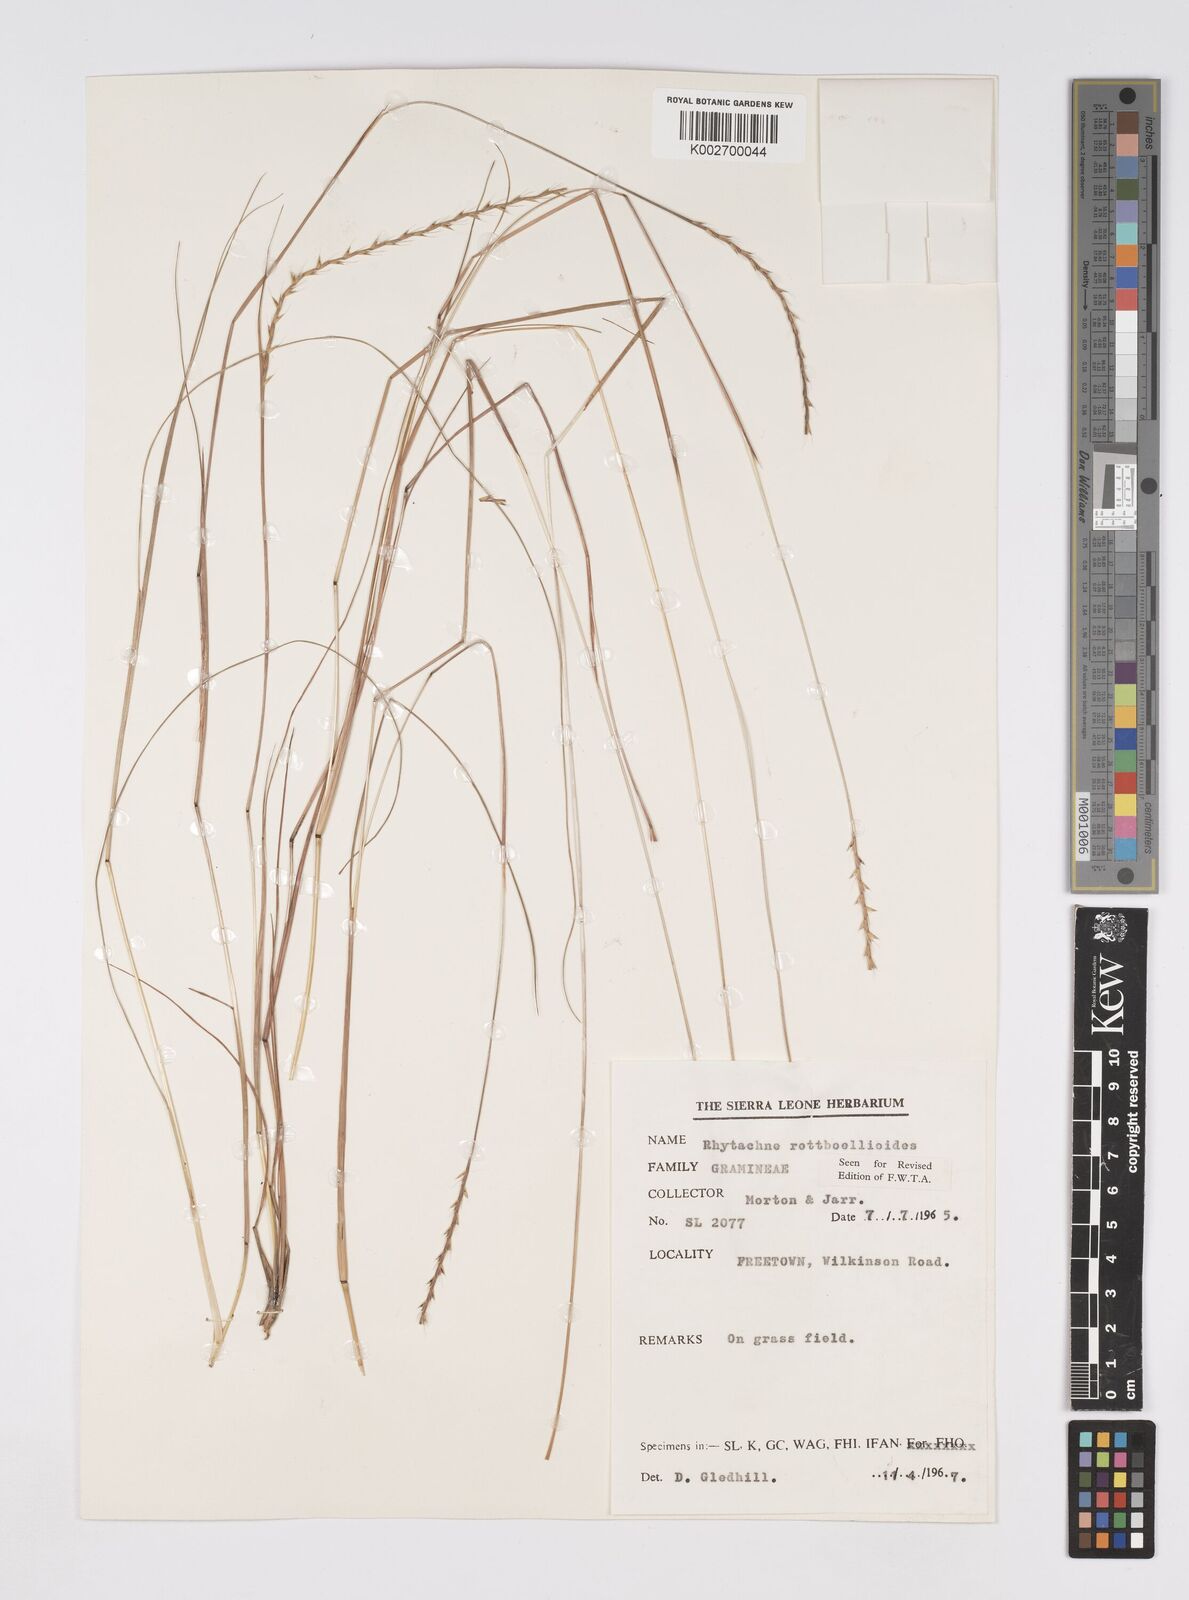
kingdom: Plantae
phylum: Tracheophyta
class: Liliopsida
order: Poales
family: Poaceae
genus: Rhytachne
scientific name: Rhytachne rottboellioides
